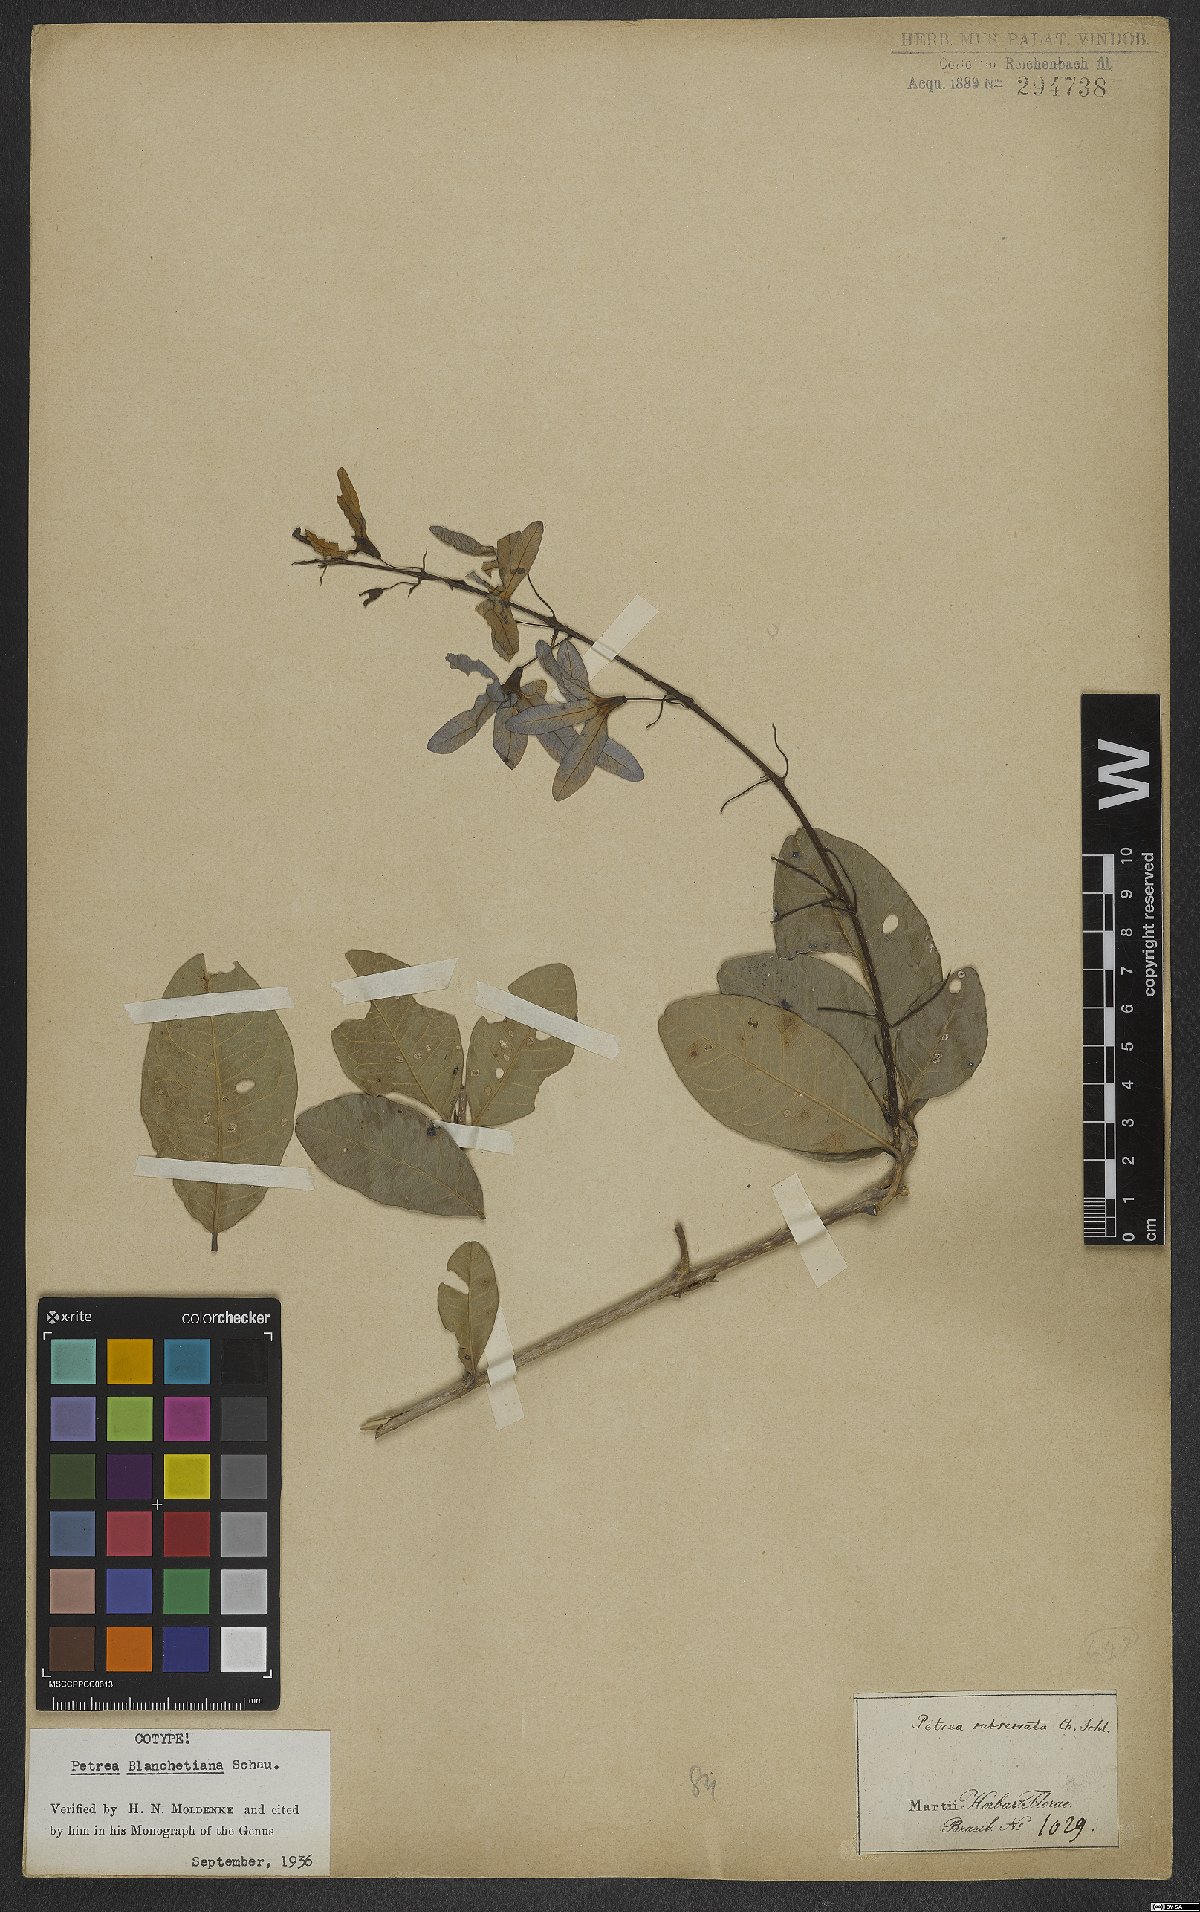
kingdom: Plantae
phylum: Tracheophyta
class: Magnoliopsida
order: Lamiales
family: Verbenaceae
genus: Petrea
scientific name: Petrea blanchetiana
